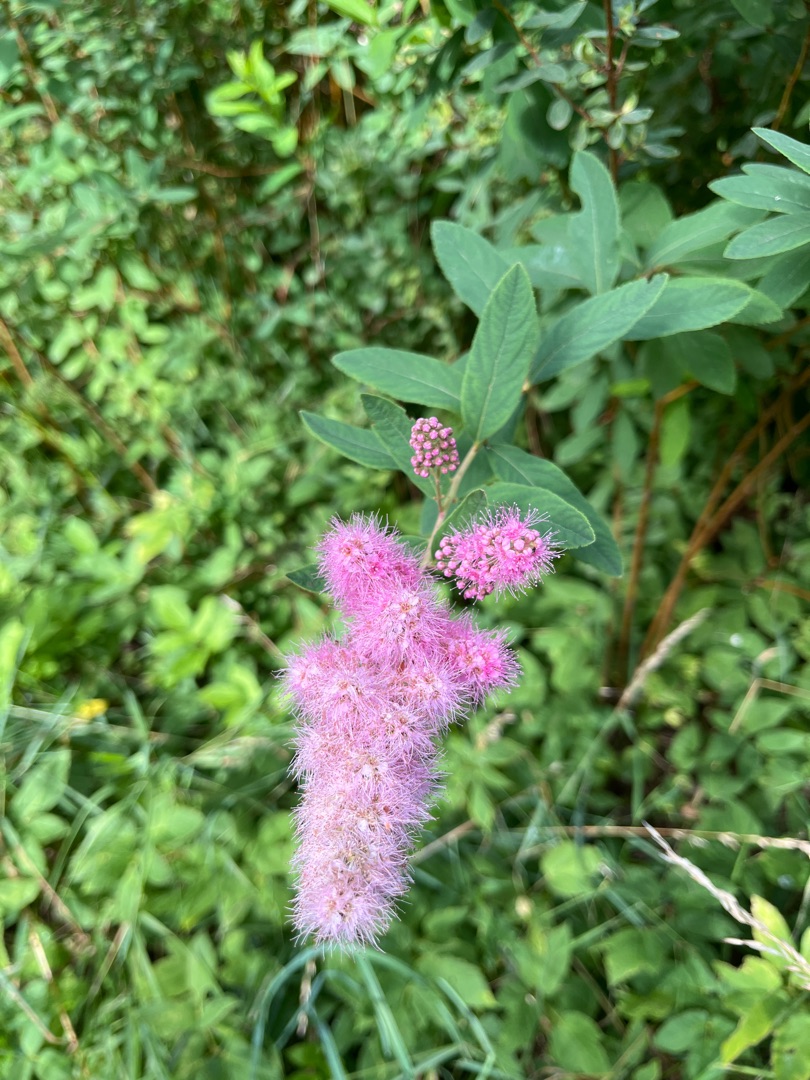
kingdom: Plantae
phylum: Tracheophyta
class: Magnoliopsida
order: Rosales
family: Rosaceae
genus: Spiraea
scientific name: Spiraea
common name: Spiræaslægten
